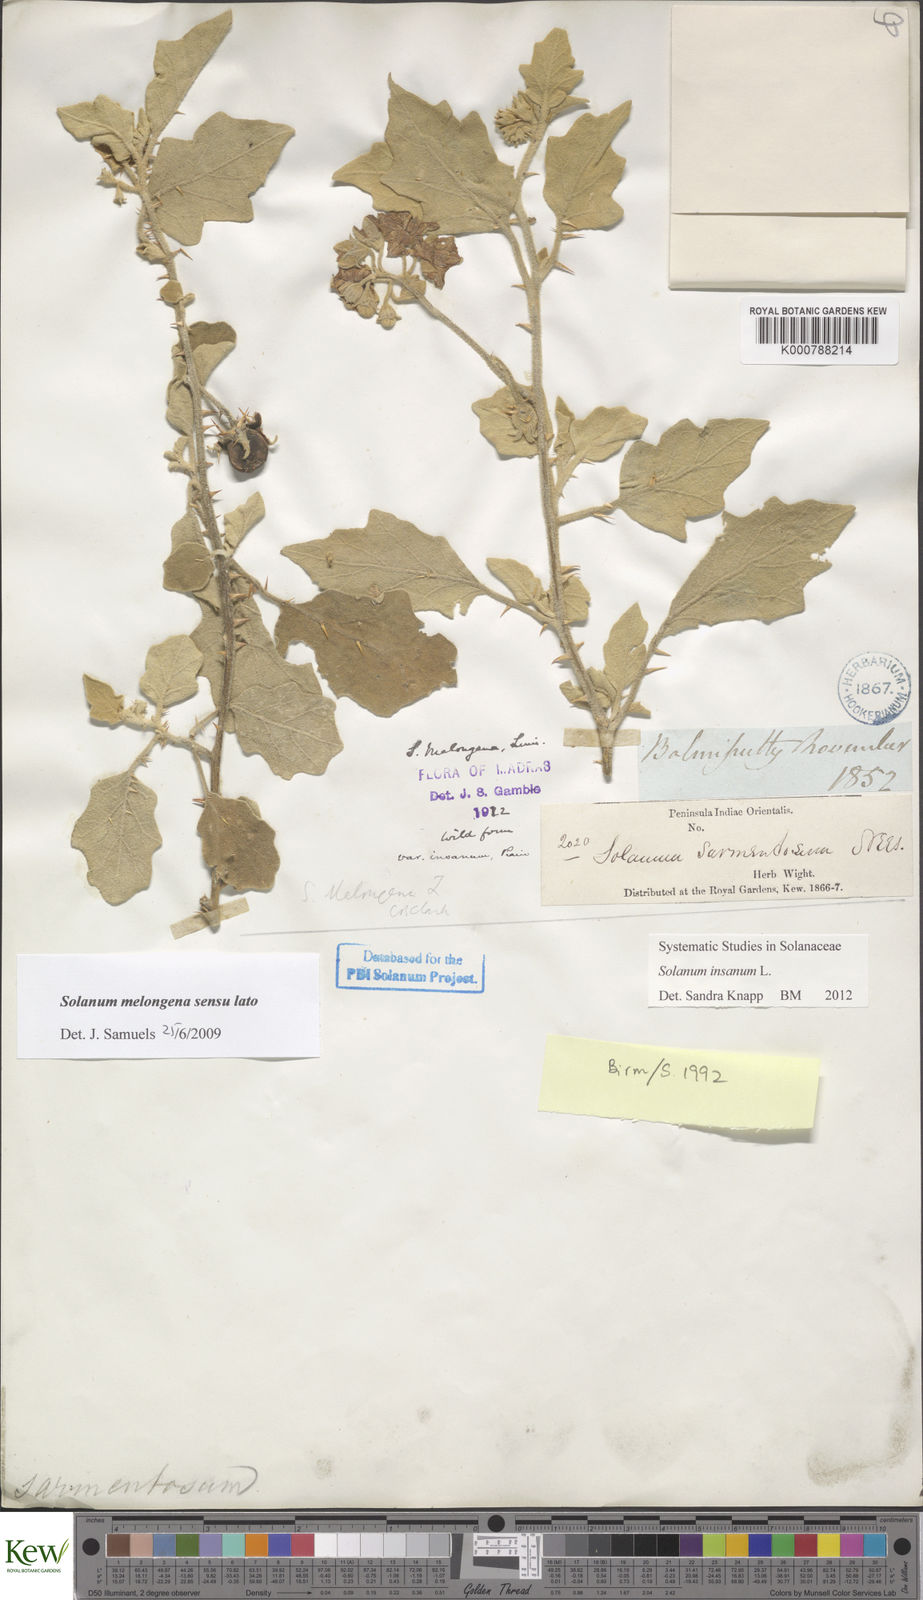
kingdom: Plantae
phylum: Tracheophyta
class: Magnoliopsida
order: Solanales
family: Solanaceae
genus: Solanum
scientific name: Solanum insanum
